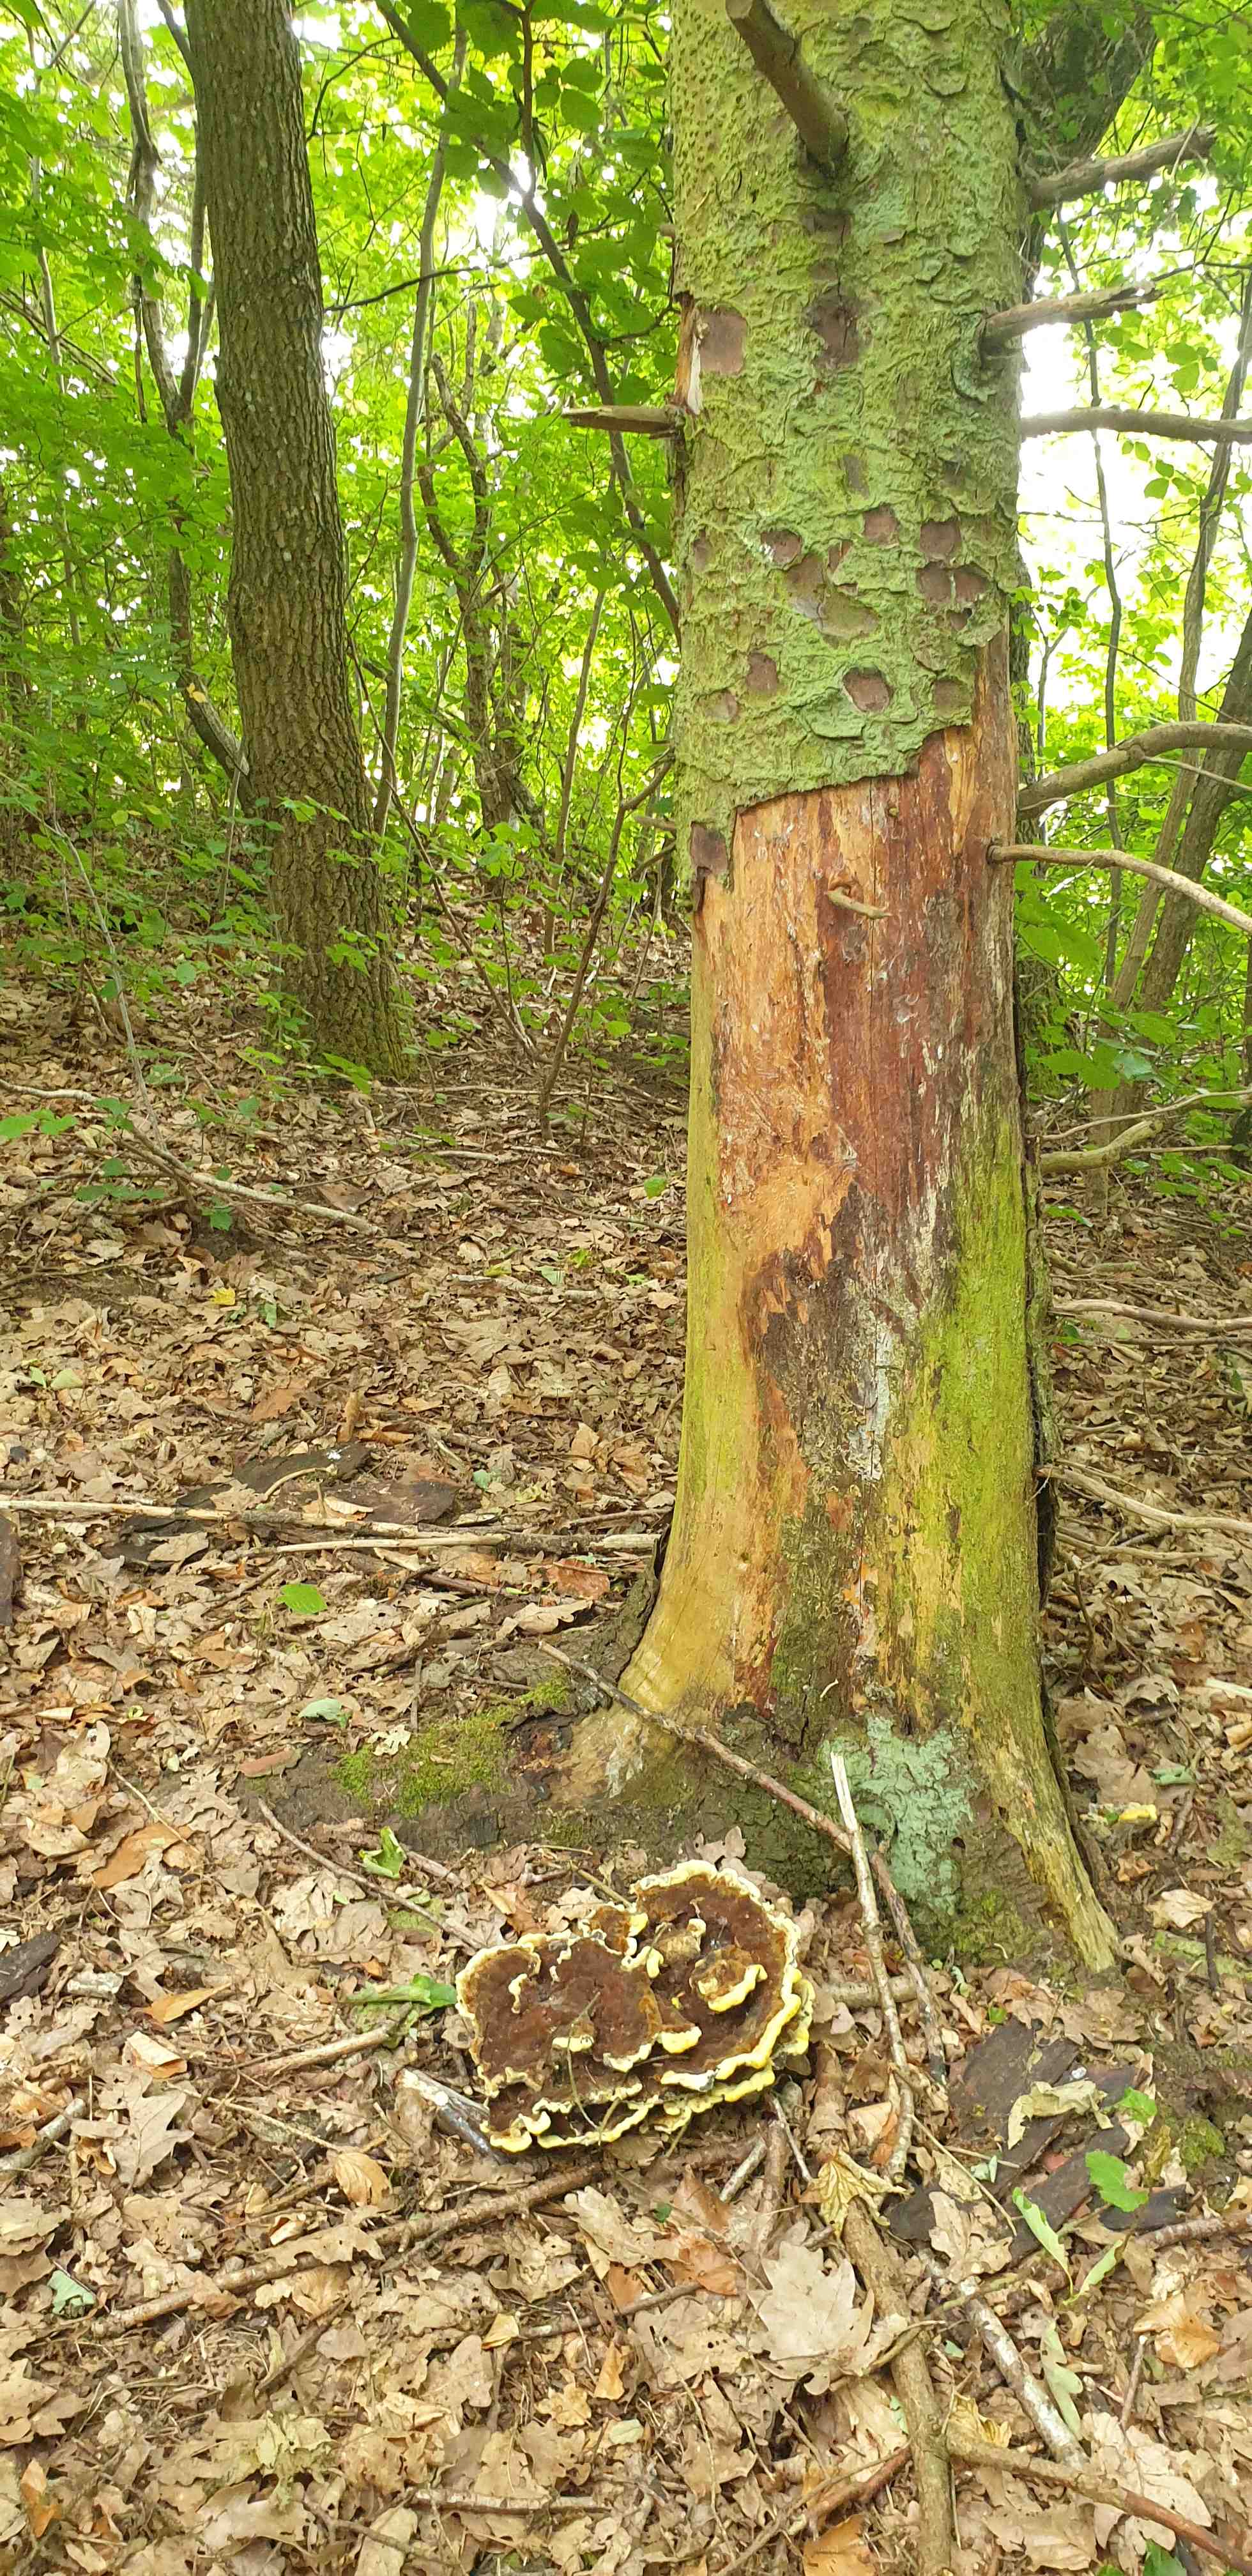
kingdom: Fungi
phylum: Basidiomycota
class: Agaricomycetes
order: Polyporales
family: Laetiporaceae
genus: Phaeolus
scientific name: Phaeolus schweinitzii
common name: brunporesvamp
